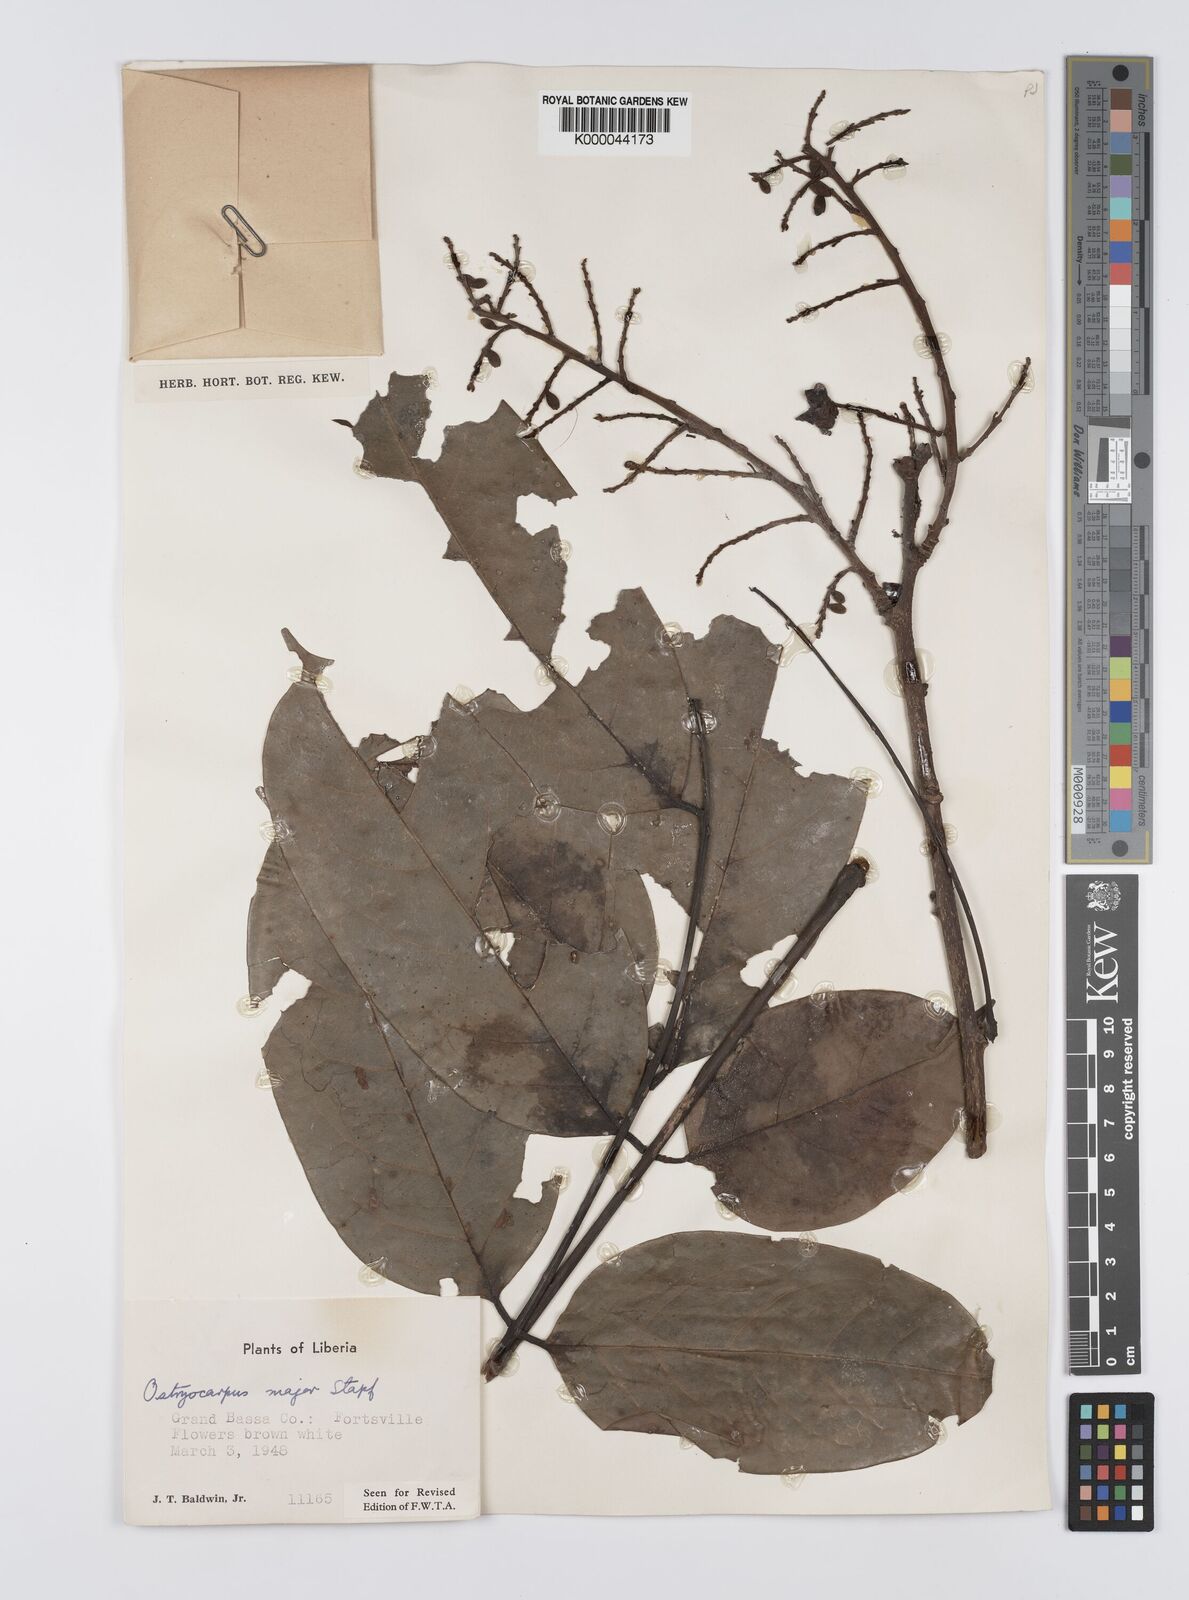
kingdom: Plantae
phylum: Tracheophyta
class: Magnoliopsida
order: Fabales
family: Fabaceae
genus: Aganope
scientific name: Aganope gabonica
